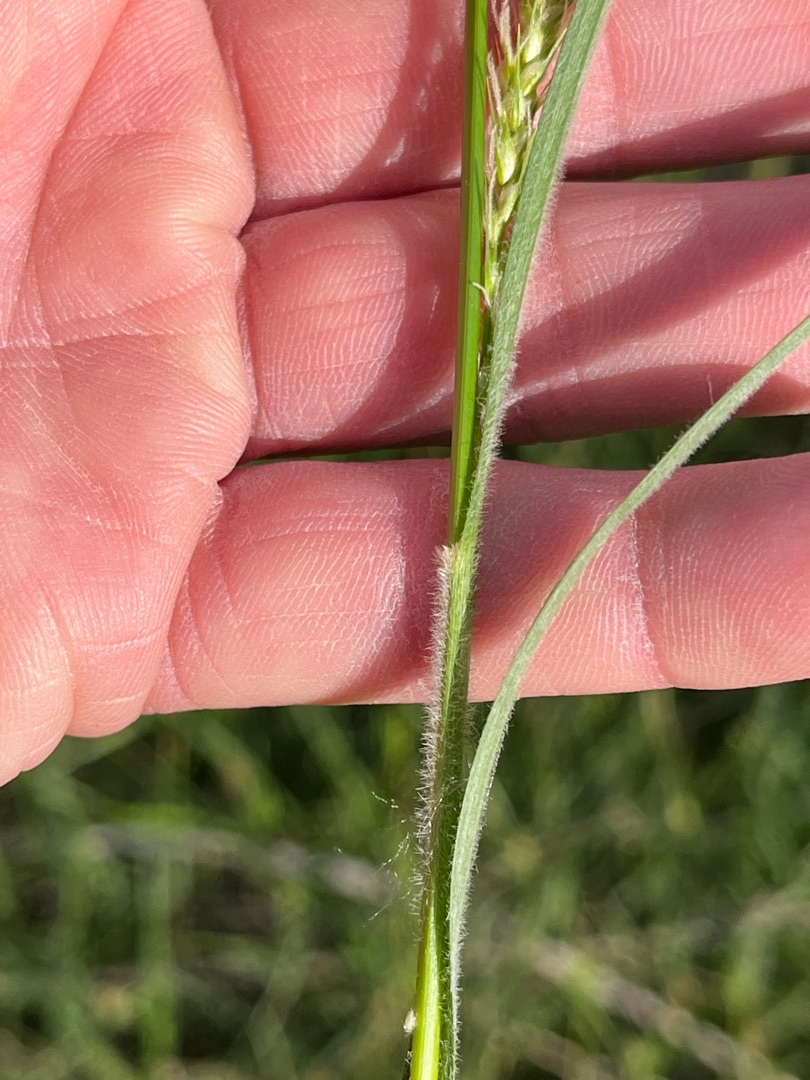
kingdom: Plantae
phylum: Tracheophyta
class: Liliopsida
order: Poales
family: Cyperaceae
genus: Carex
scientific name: Carex hirta
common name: Håret star
